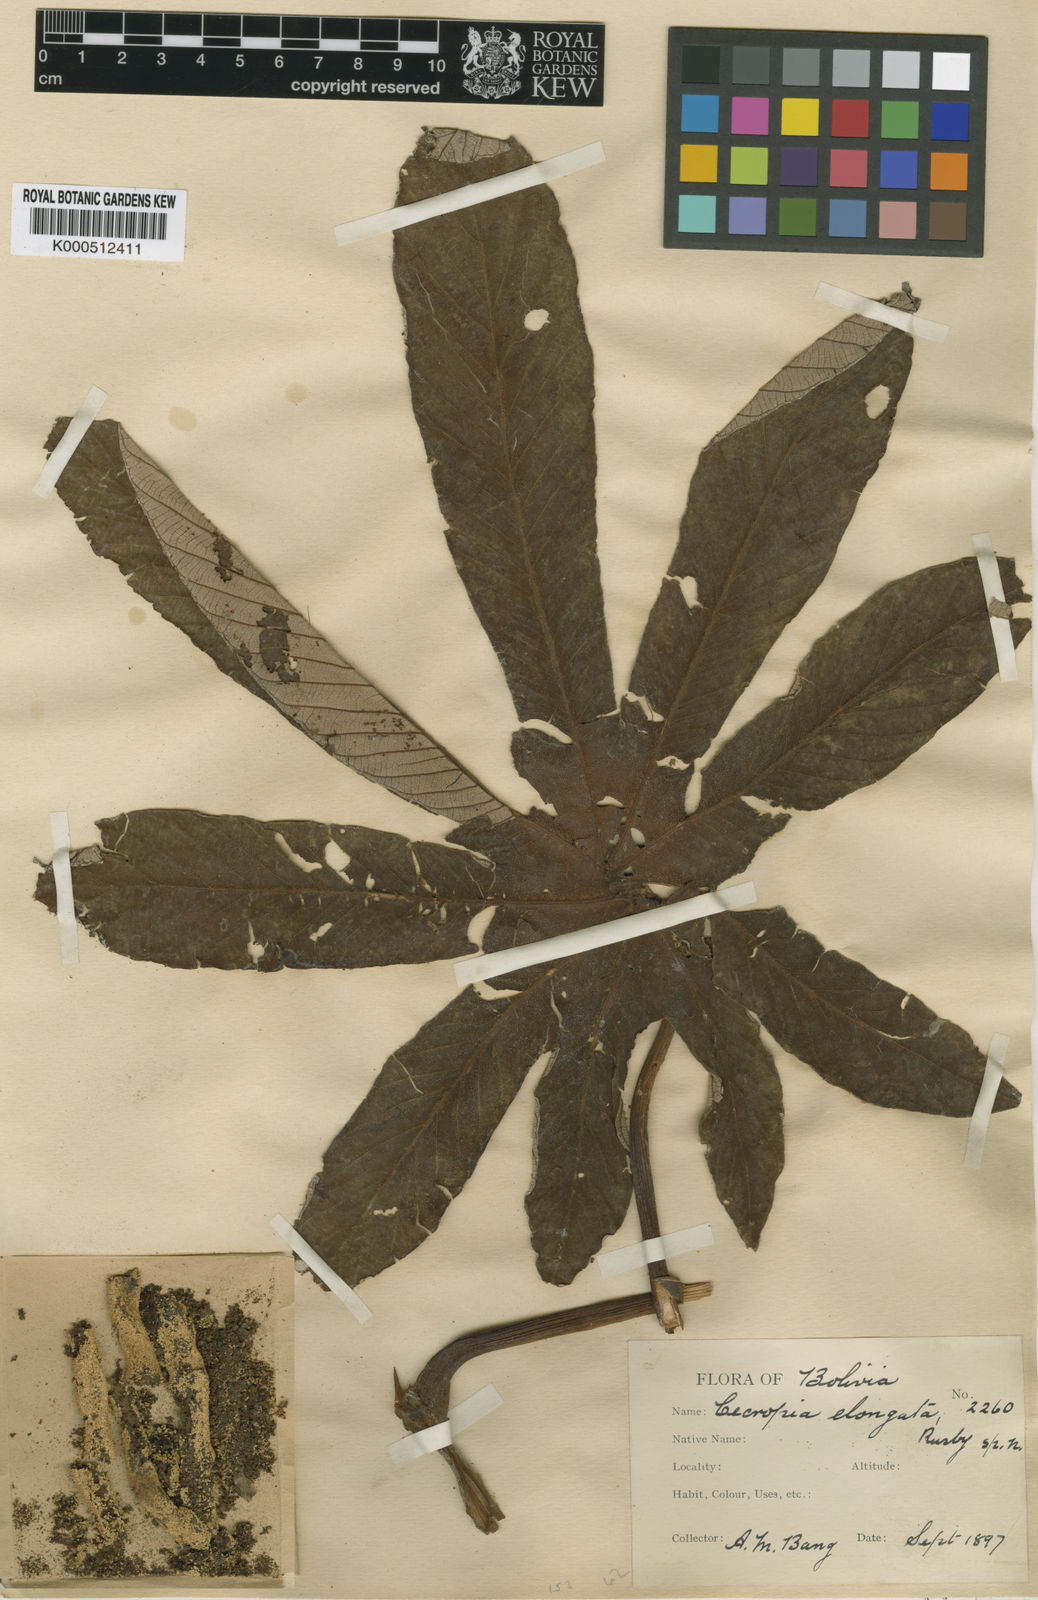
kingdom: Plantae
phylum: Tracheophyta
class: Magnoliopsida
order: Rosales
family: Urticaceae
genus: Cecropia
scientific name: Cecropia elongata
